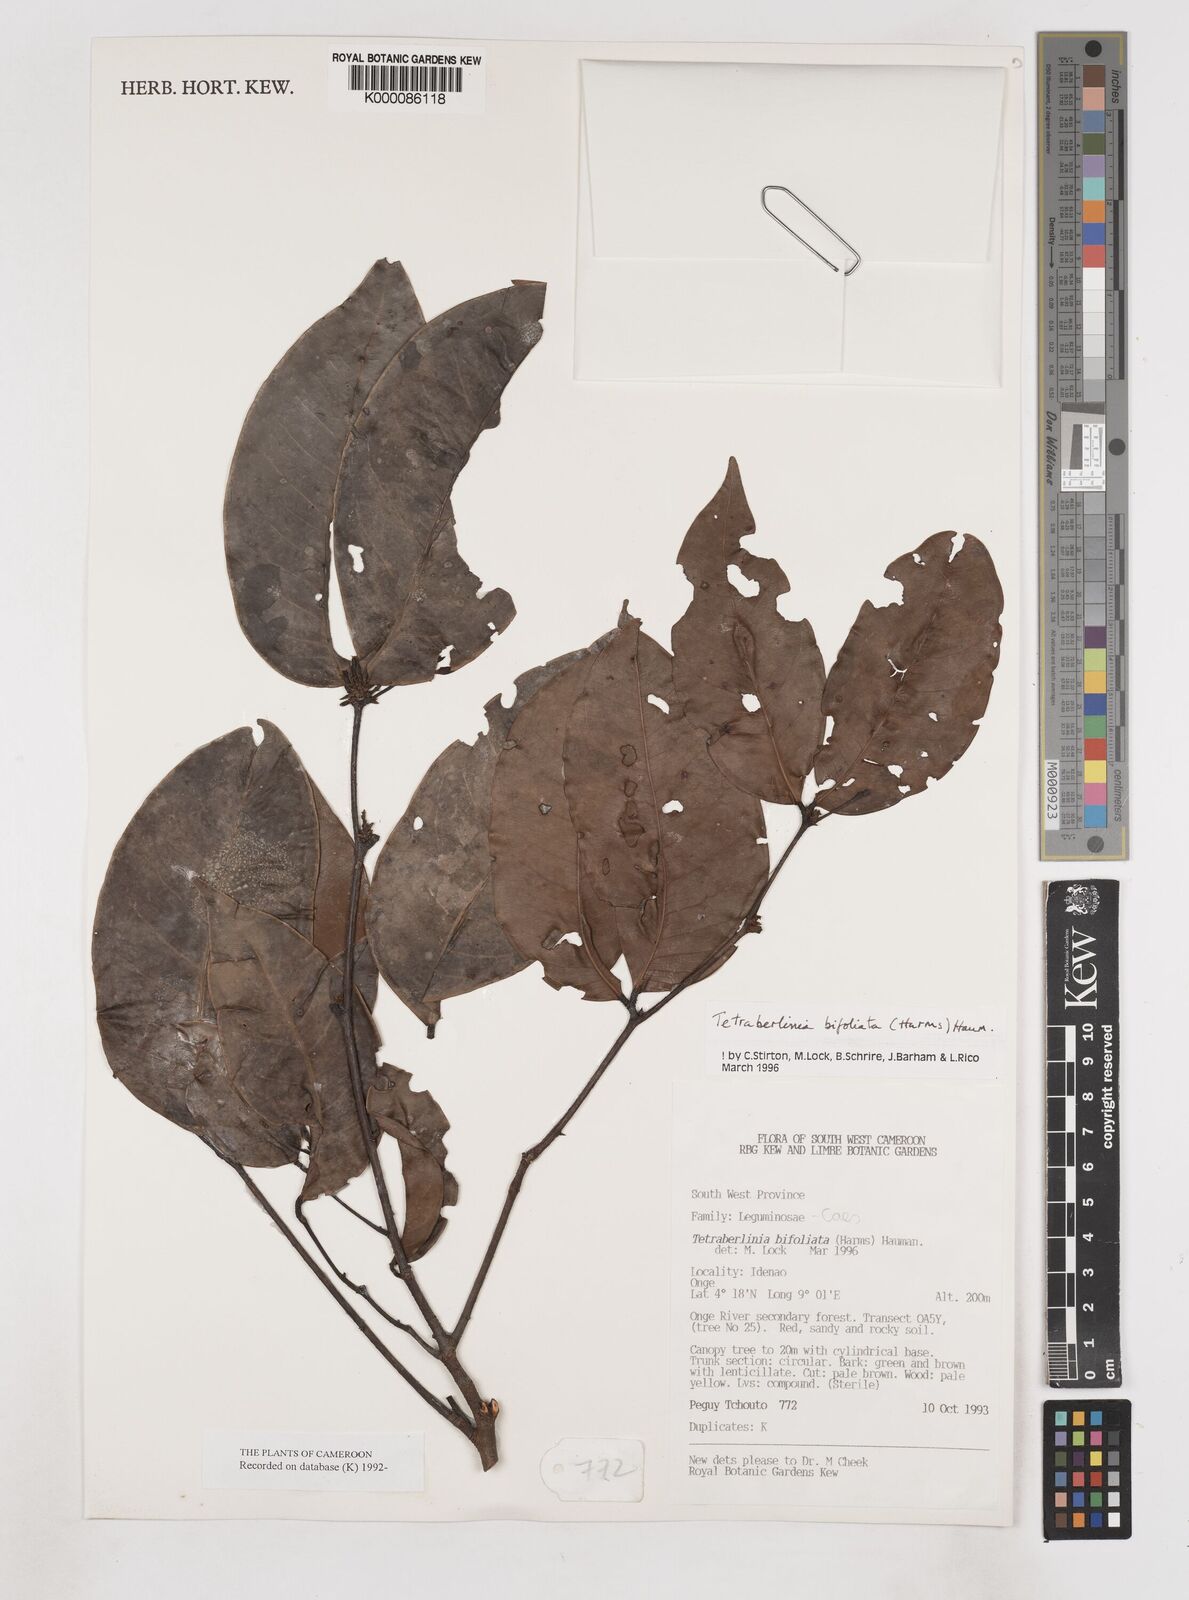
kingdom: Plantae
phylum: Tracheophyta
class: Magnoliopsida
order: Fabales
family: Fabaceae
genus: Tetraberlinia
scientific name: Tetraberlinia bifoliolata
